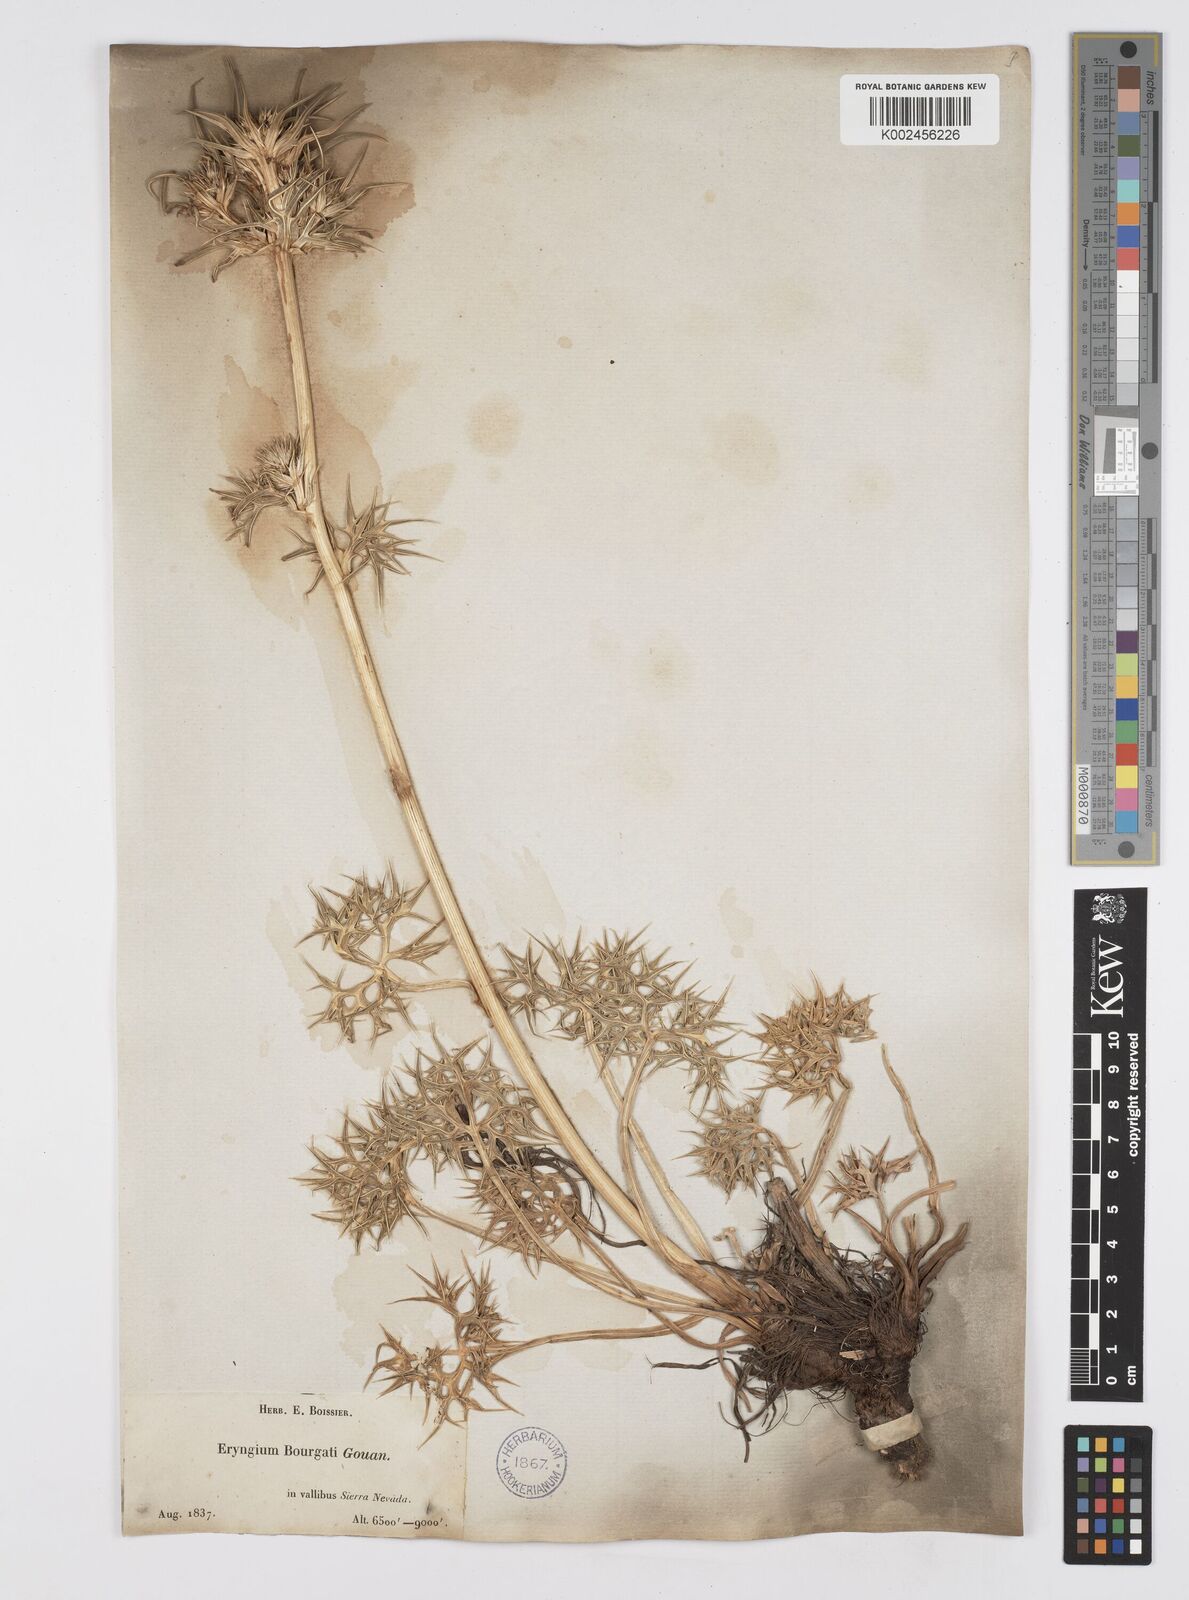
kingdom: Plantae
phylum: Tracheophyta
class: Magnoliopsida
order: Apiales
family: Apiaceae
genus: Eryngium
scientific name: Eryngium bourgatii
